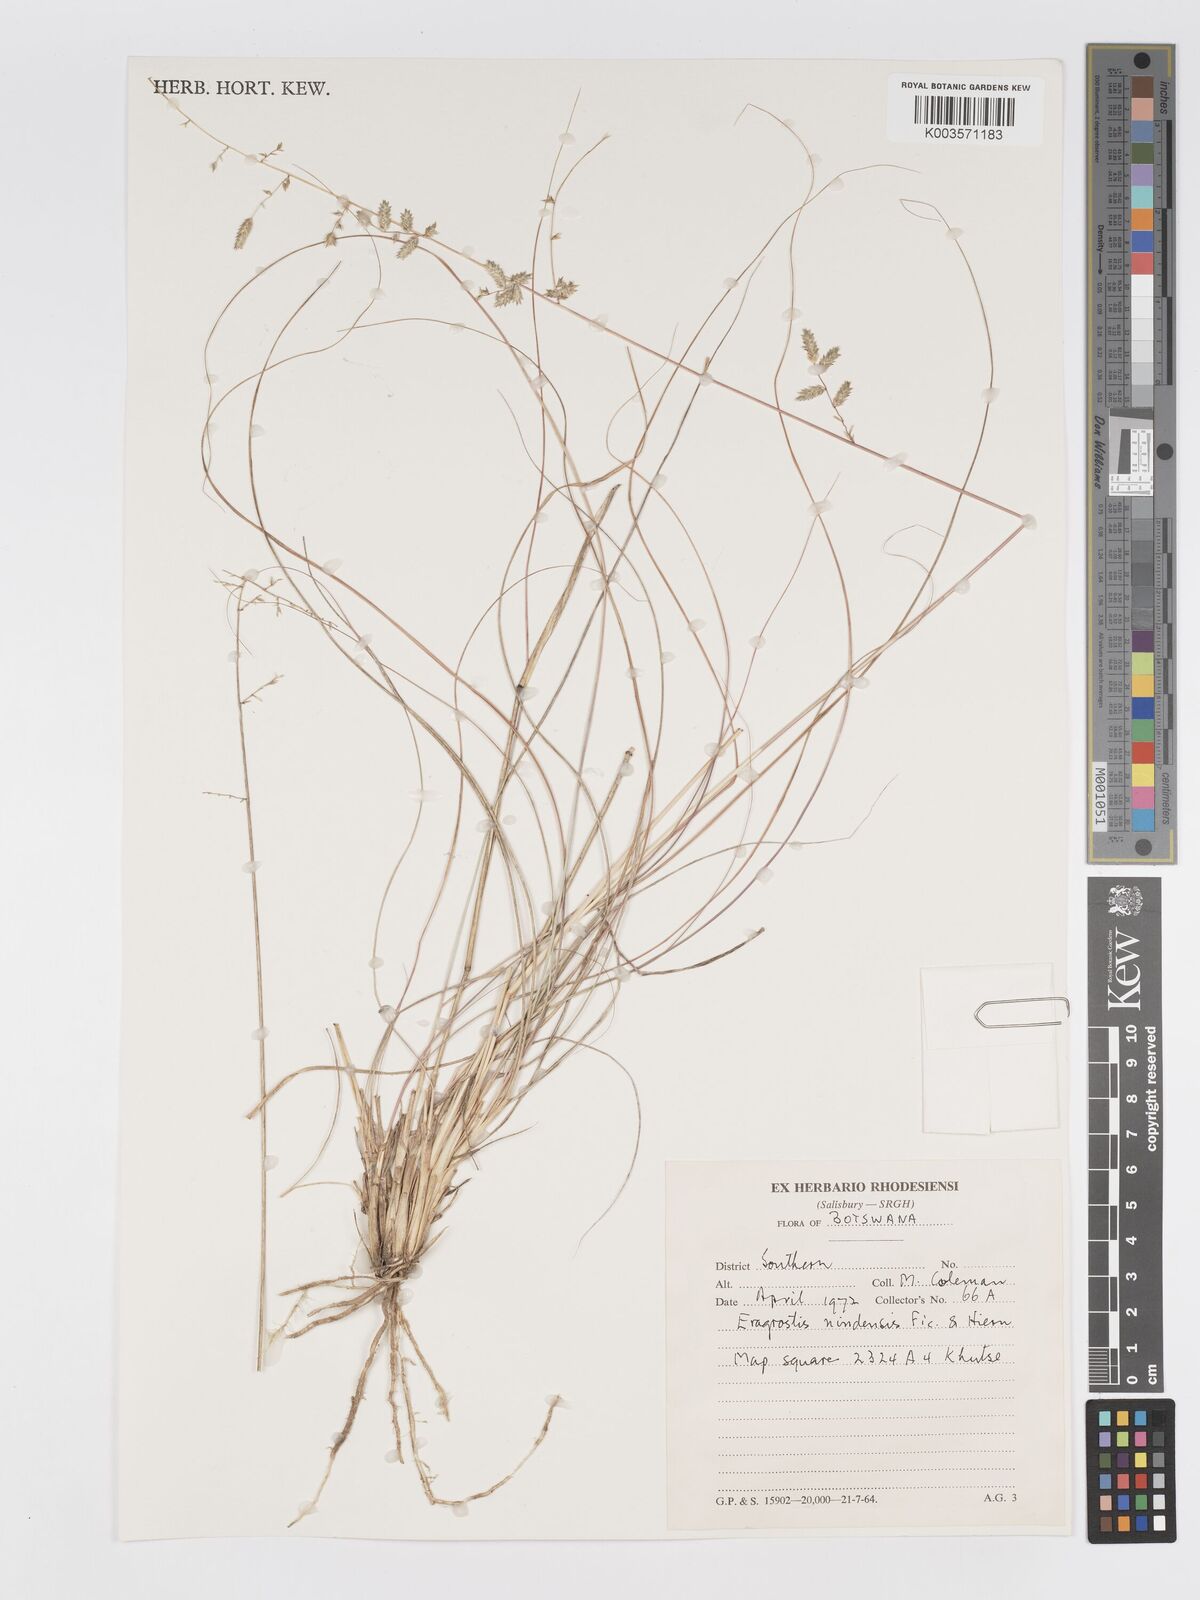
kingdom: Plantae
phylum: Tracheophyta
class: Liliopsida
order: Poales
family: Poaceae
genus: Eragrostis
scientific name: Eragrostis nindensis
